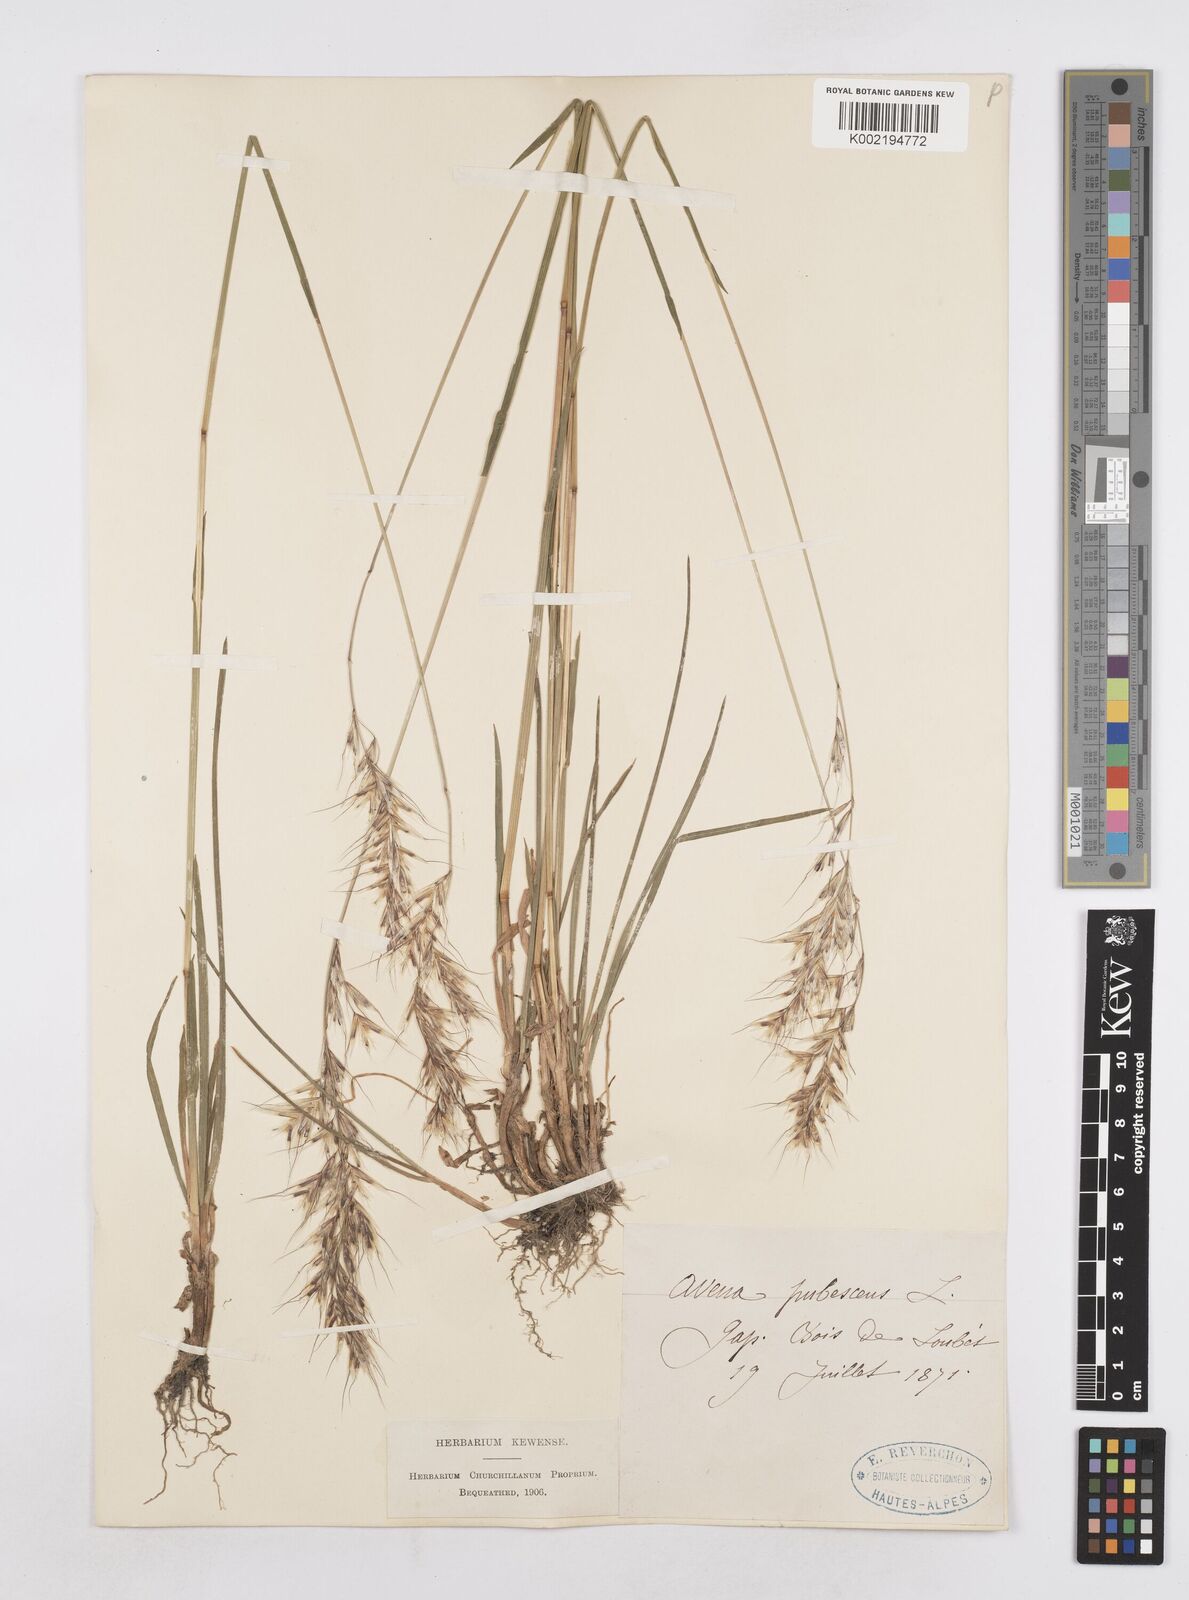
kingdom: Plantae
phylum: Tracheophyta
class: Liliopsida
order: Poales
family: Poaceae
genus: Avenula
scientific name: Avenula pubescens
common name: Downy alpine oatgrass
